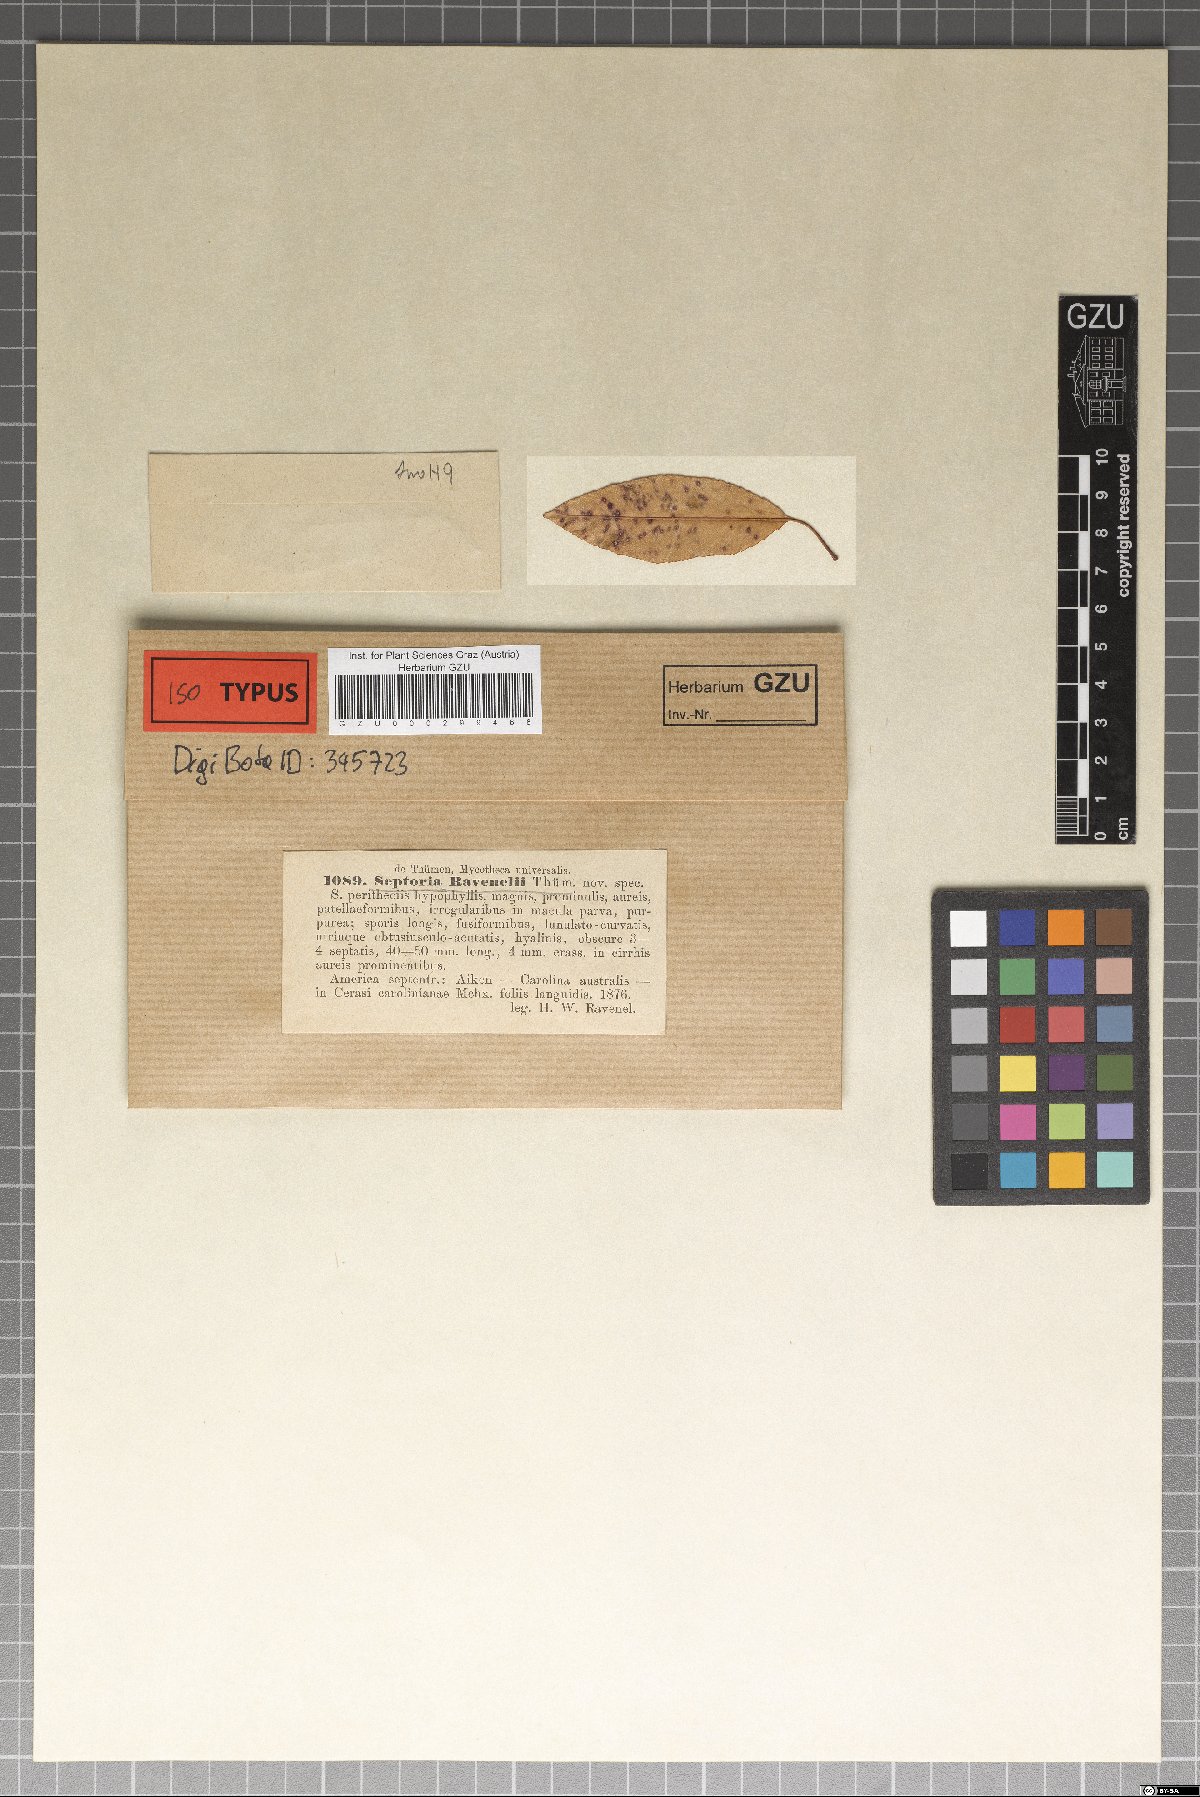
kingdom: Fungi
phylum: Ascomycota
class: Dothideomycetes
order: Mycosphaerellales
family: Mycosphaerellaceae
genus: Septoria
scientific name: Septoria
